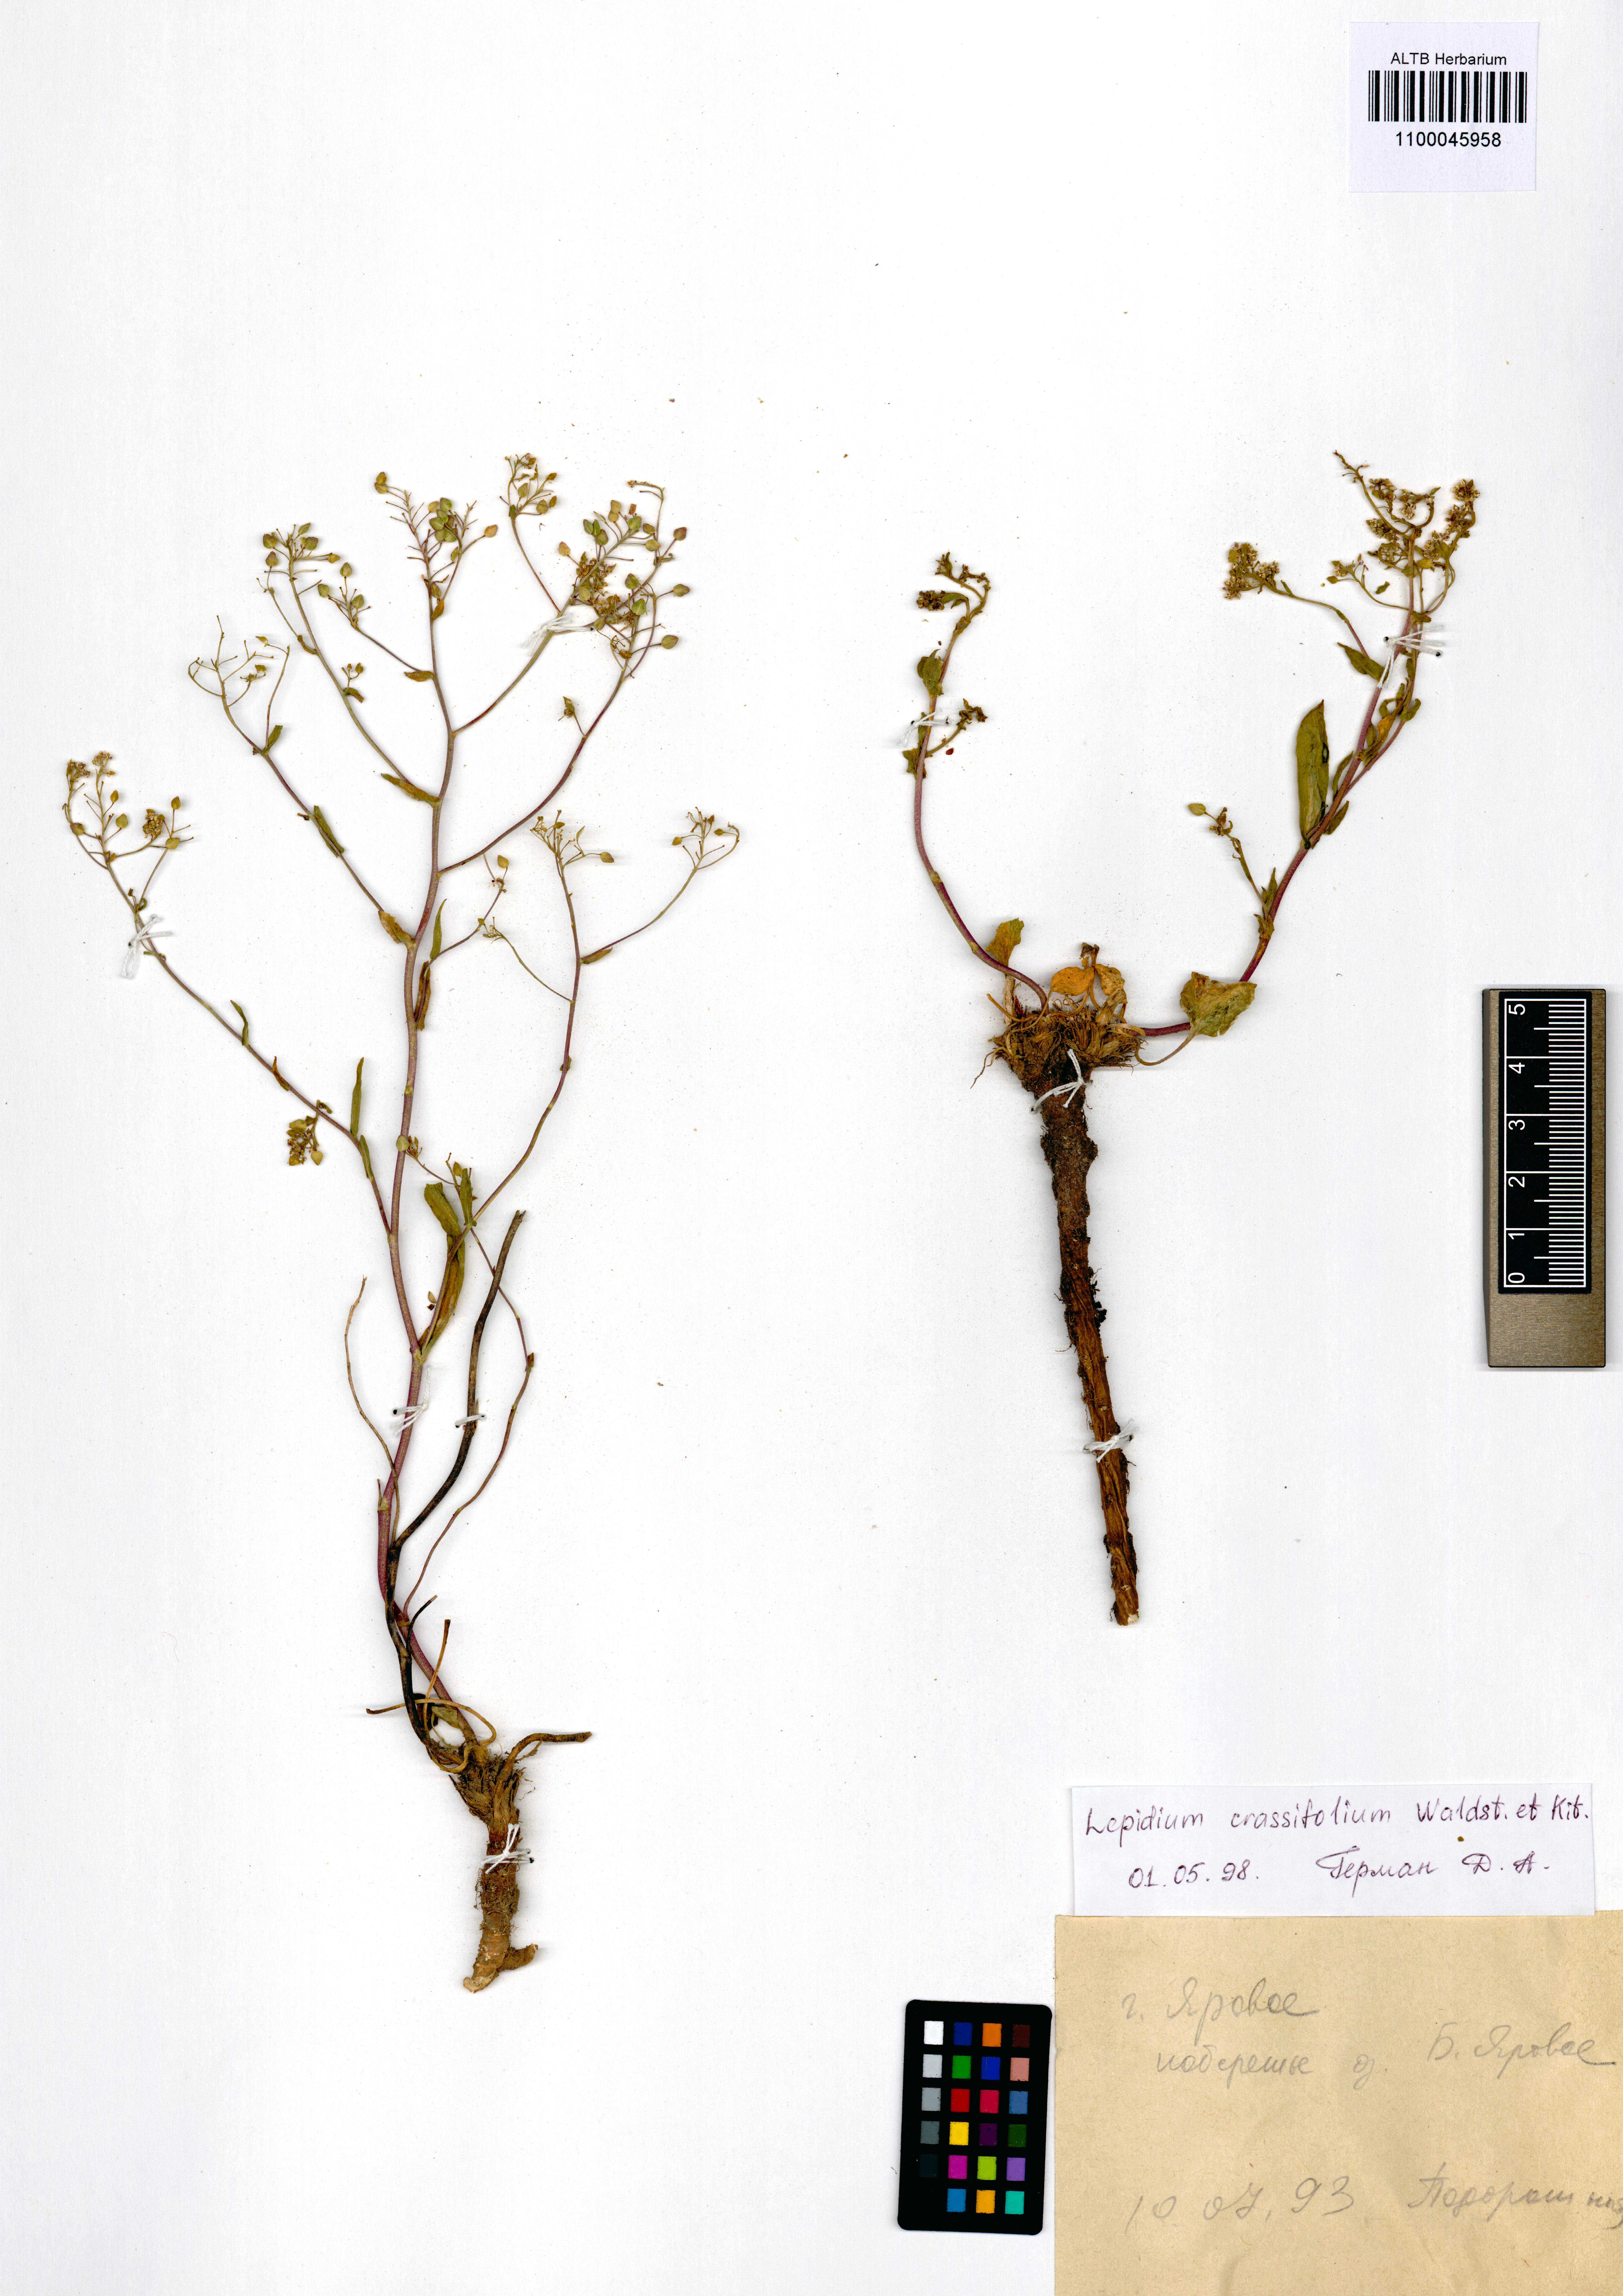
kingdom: Plantae
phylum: Tracheophyta
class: Magnoliopsida
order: Brassicales
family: Brassicaceae
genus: Lepidium
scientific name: Lepidium cartilagineum
